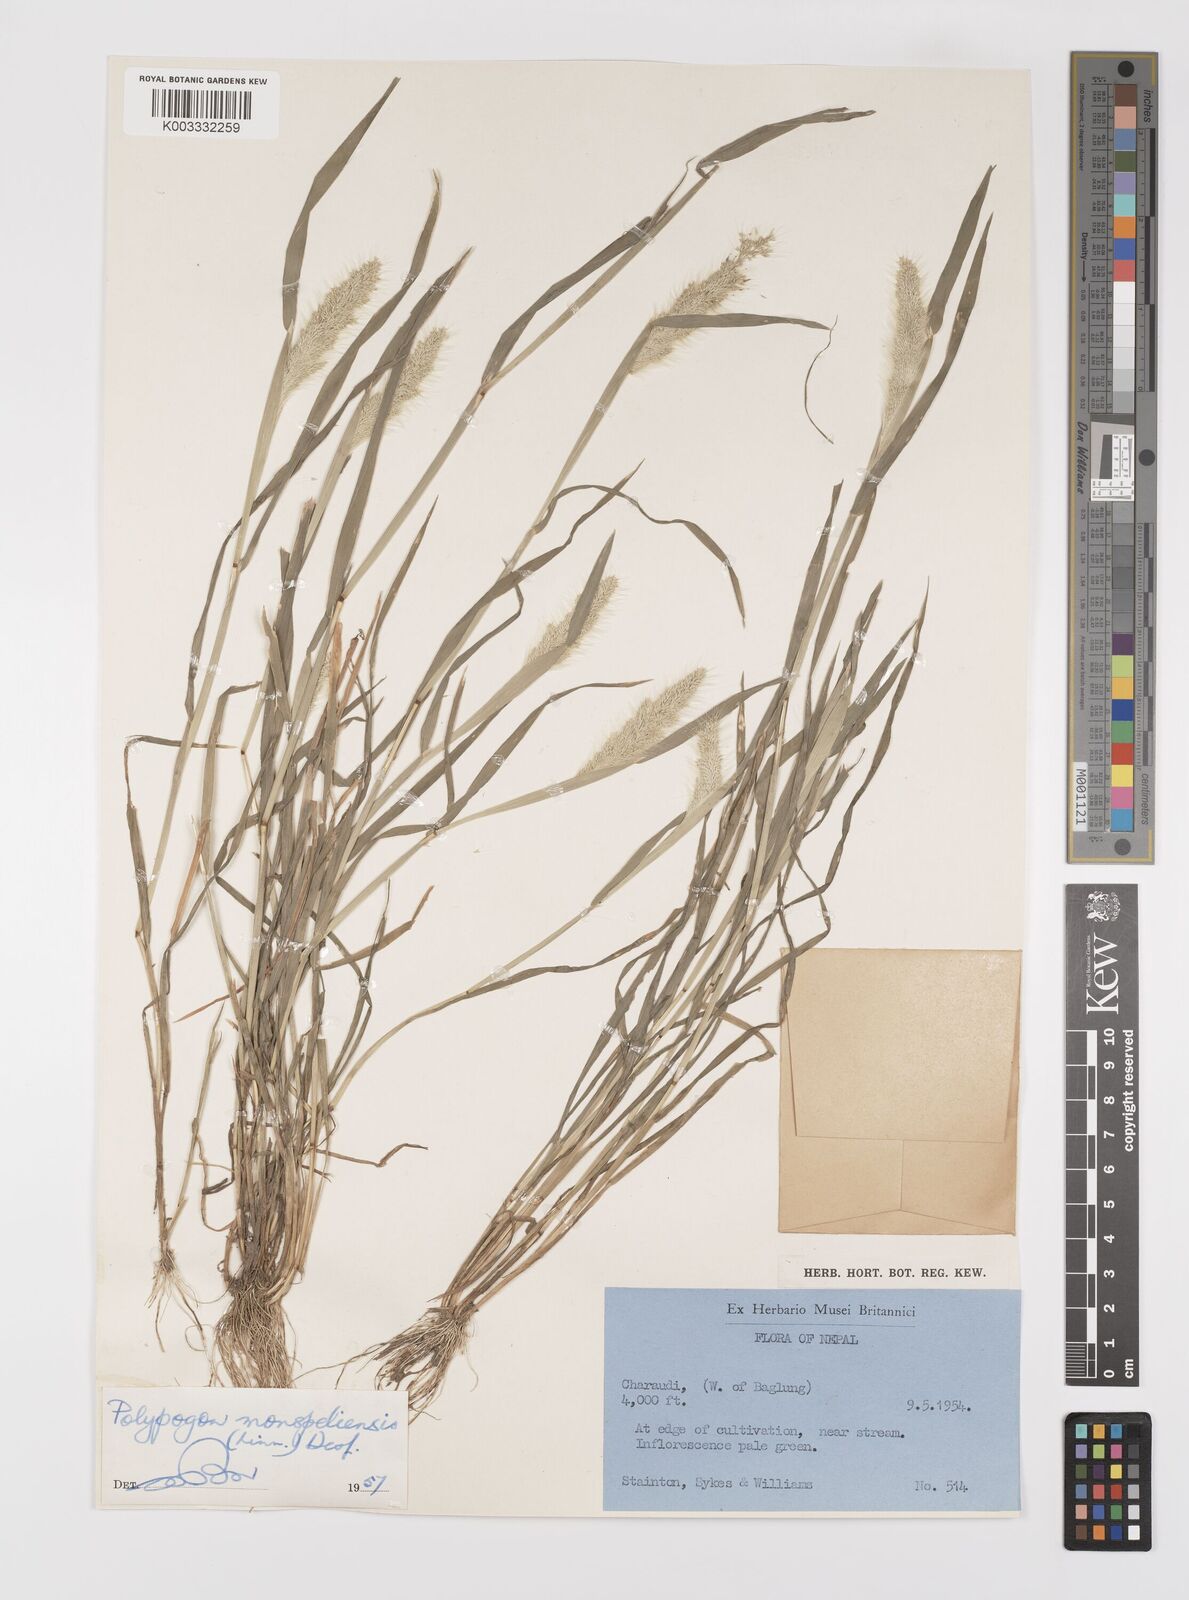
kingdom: Plantae
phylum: Tracheophyta
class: Liliopsida
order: Poales
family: Poaceae
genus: Polypogon
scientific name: Polypogon monspeliensis
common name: Annual rabbitsfoot grass
